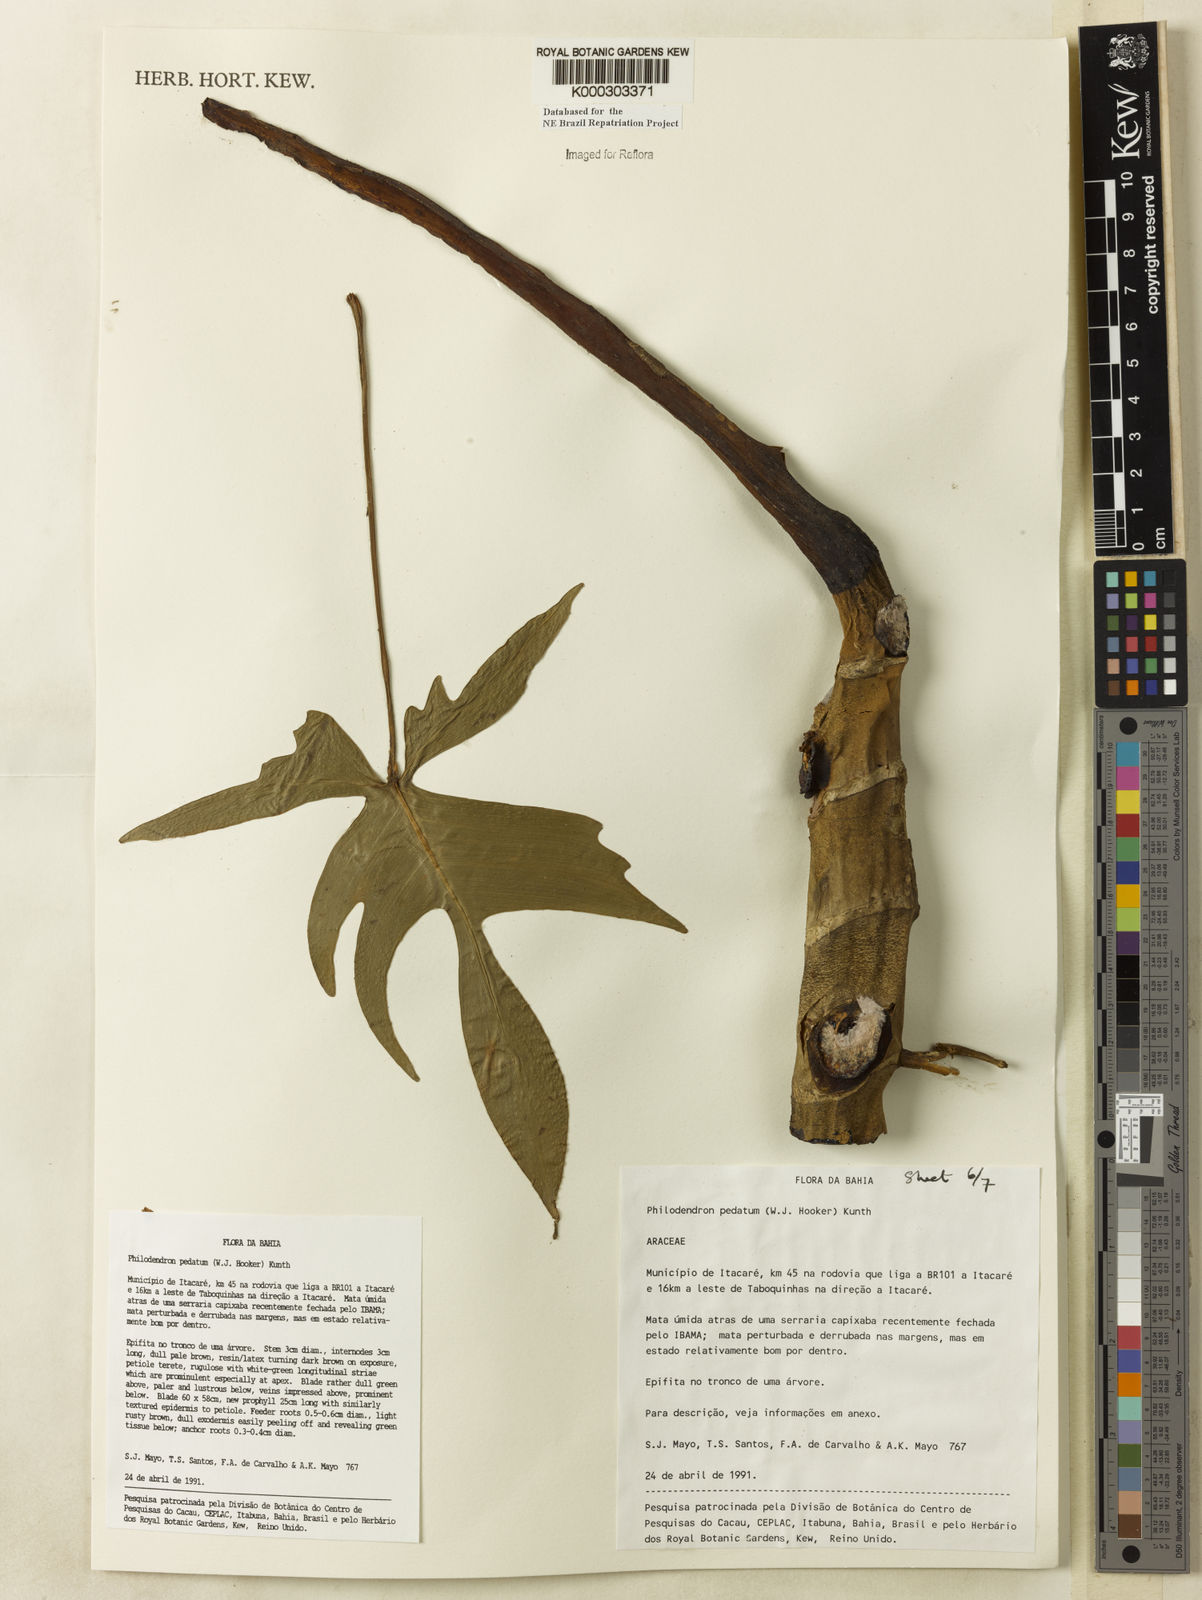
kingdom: Plantae
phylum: Tracheophyta
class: Liliopsida
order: Alismatales
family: Araceae
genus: Philodendron
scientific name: Philodendron pedatum
